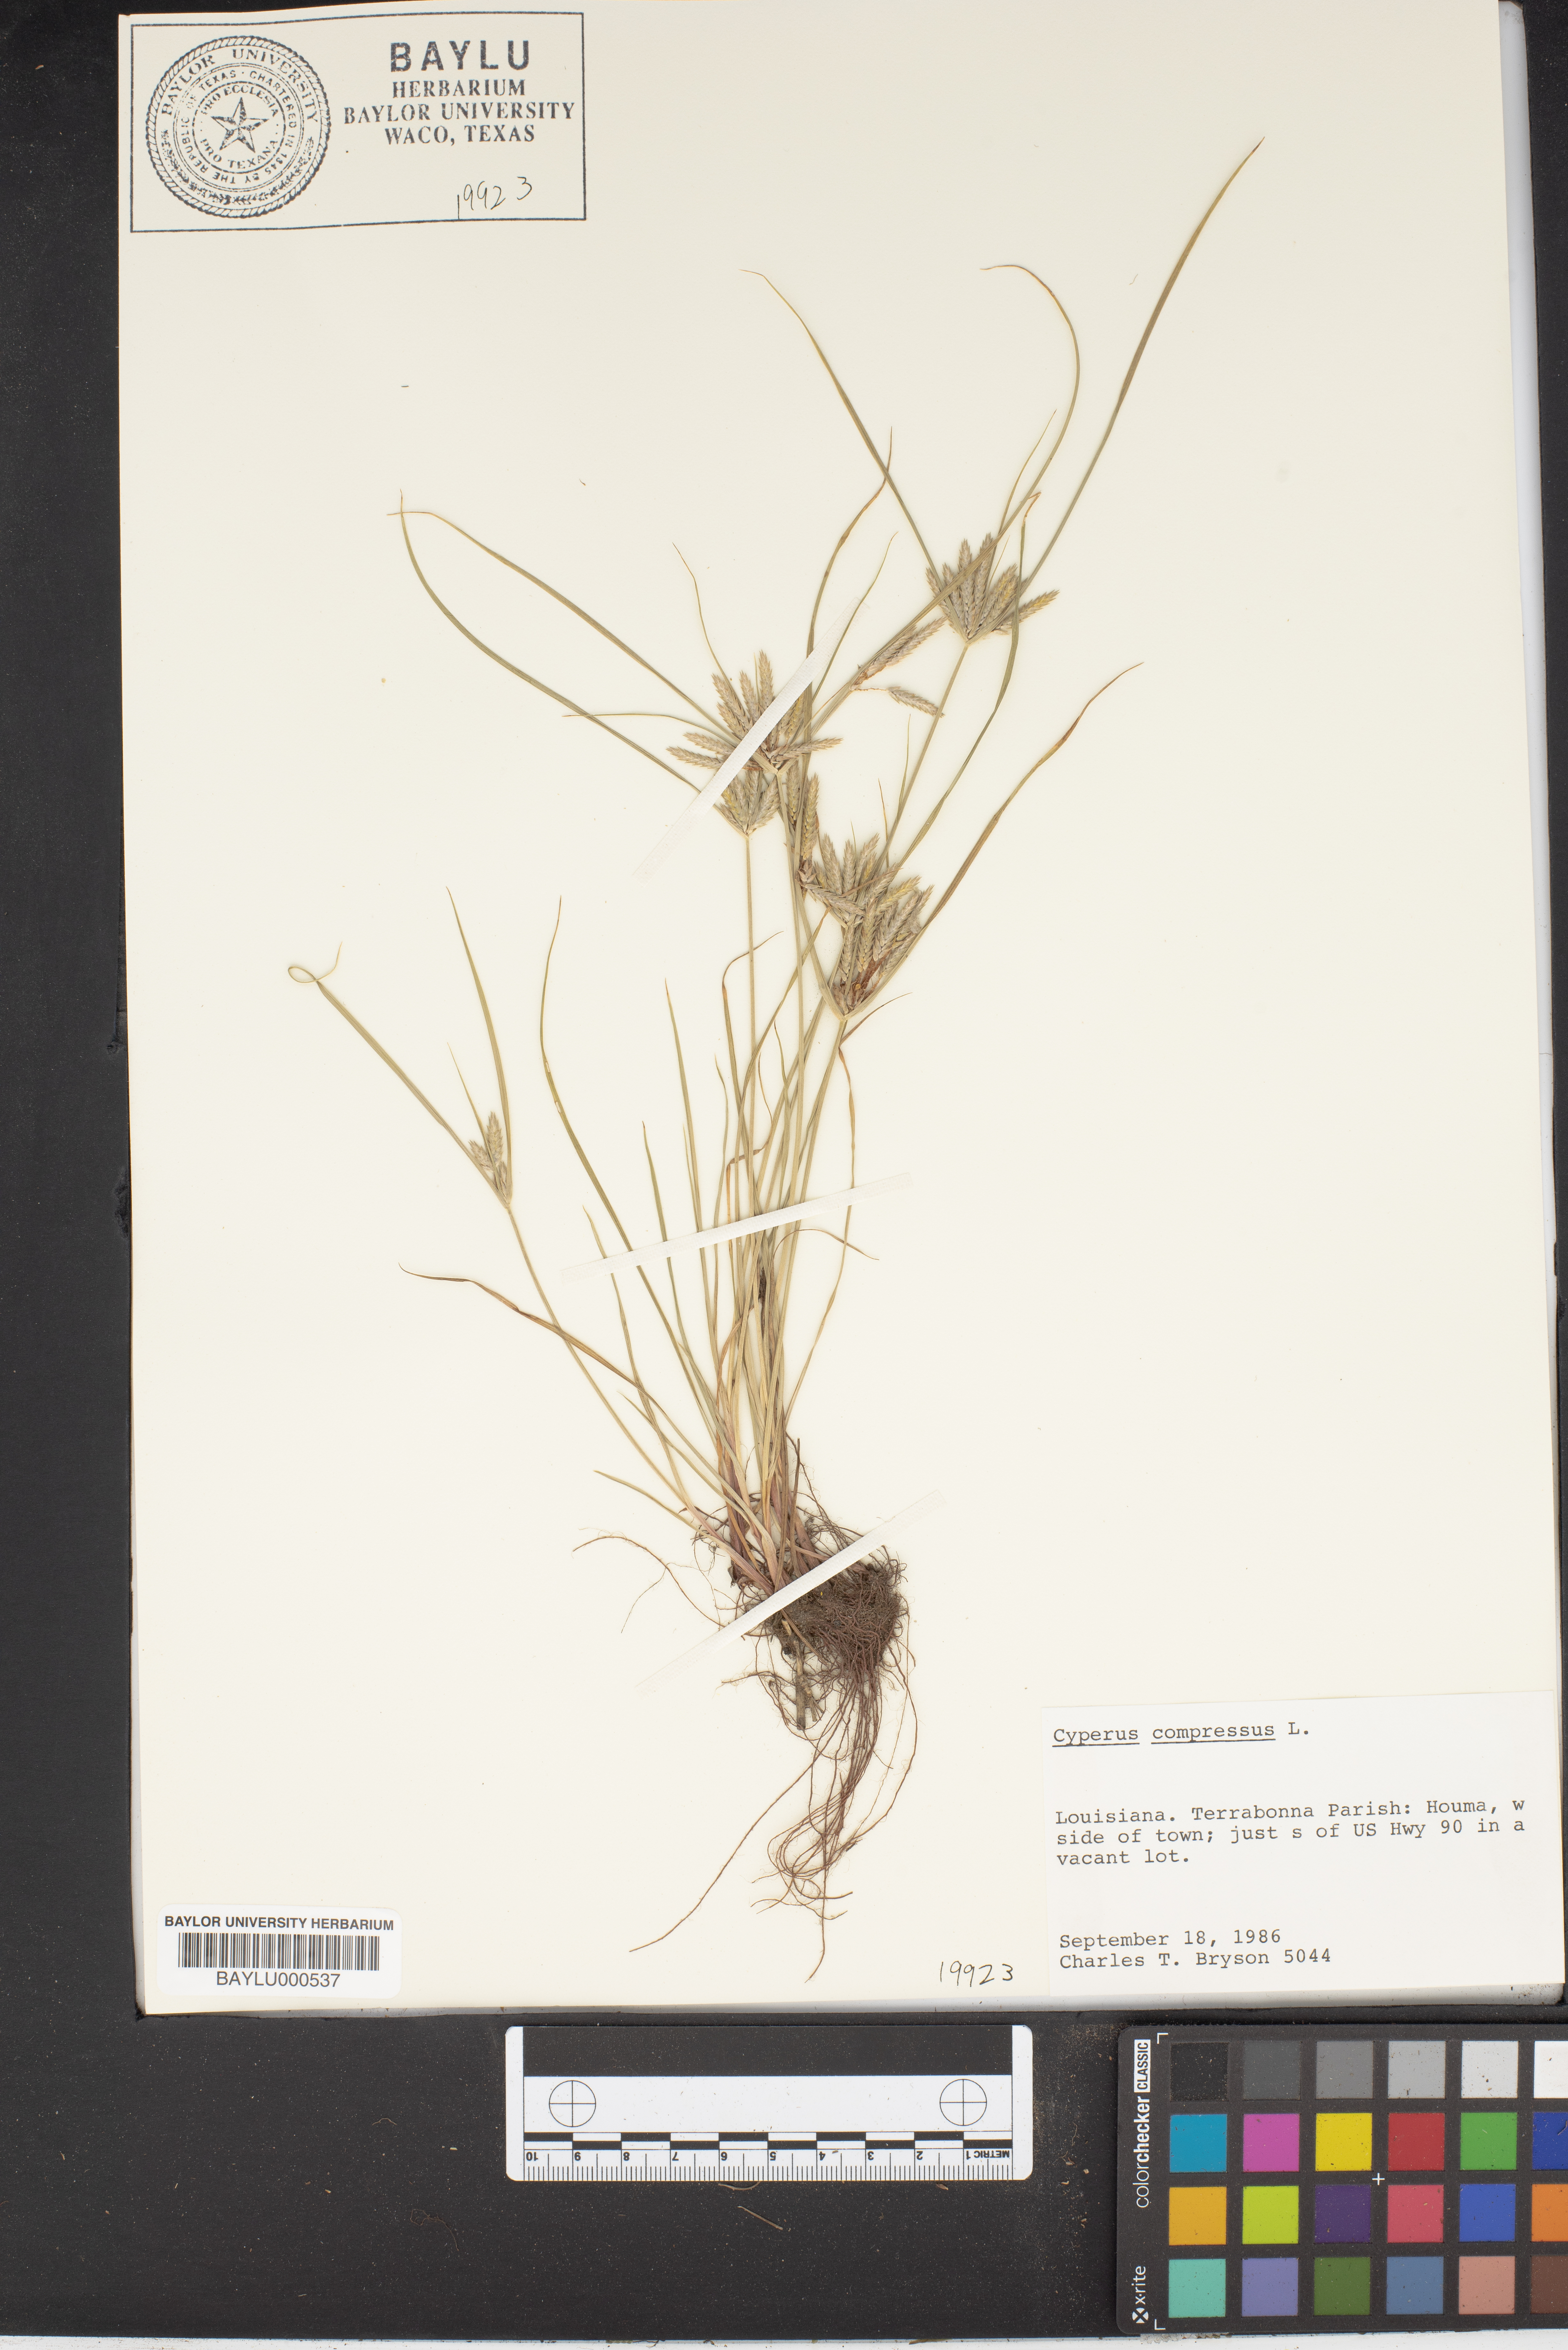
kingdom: Plantae
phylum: Tracheophyta
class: Liliopsida
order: Poales
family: Cyperaceae
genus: Cyperus
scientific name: Cyperus compressus
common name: Poorland flatsedge
